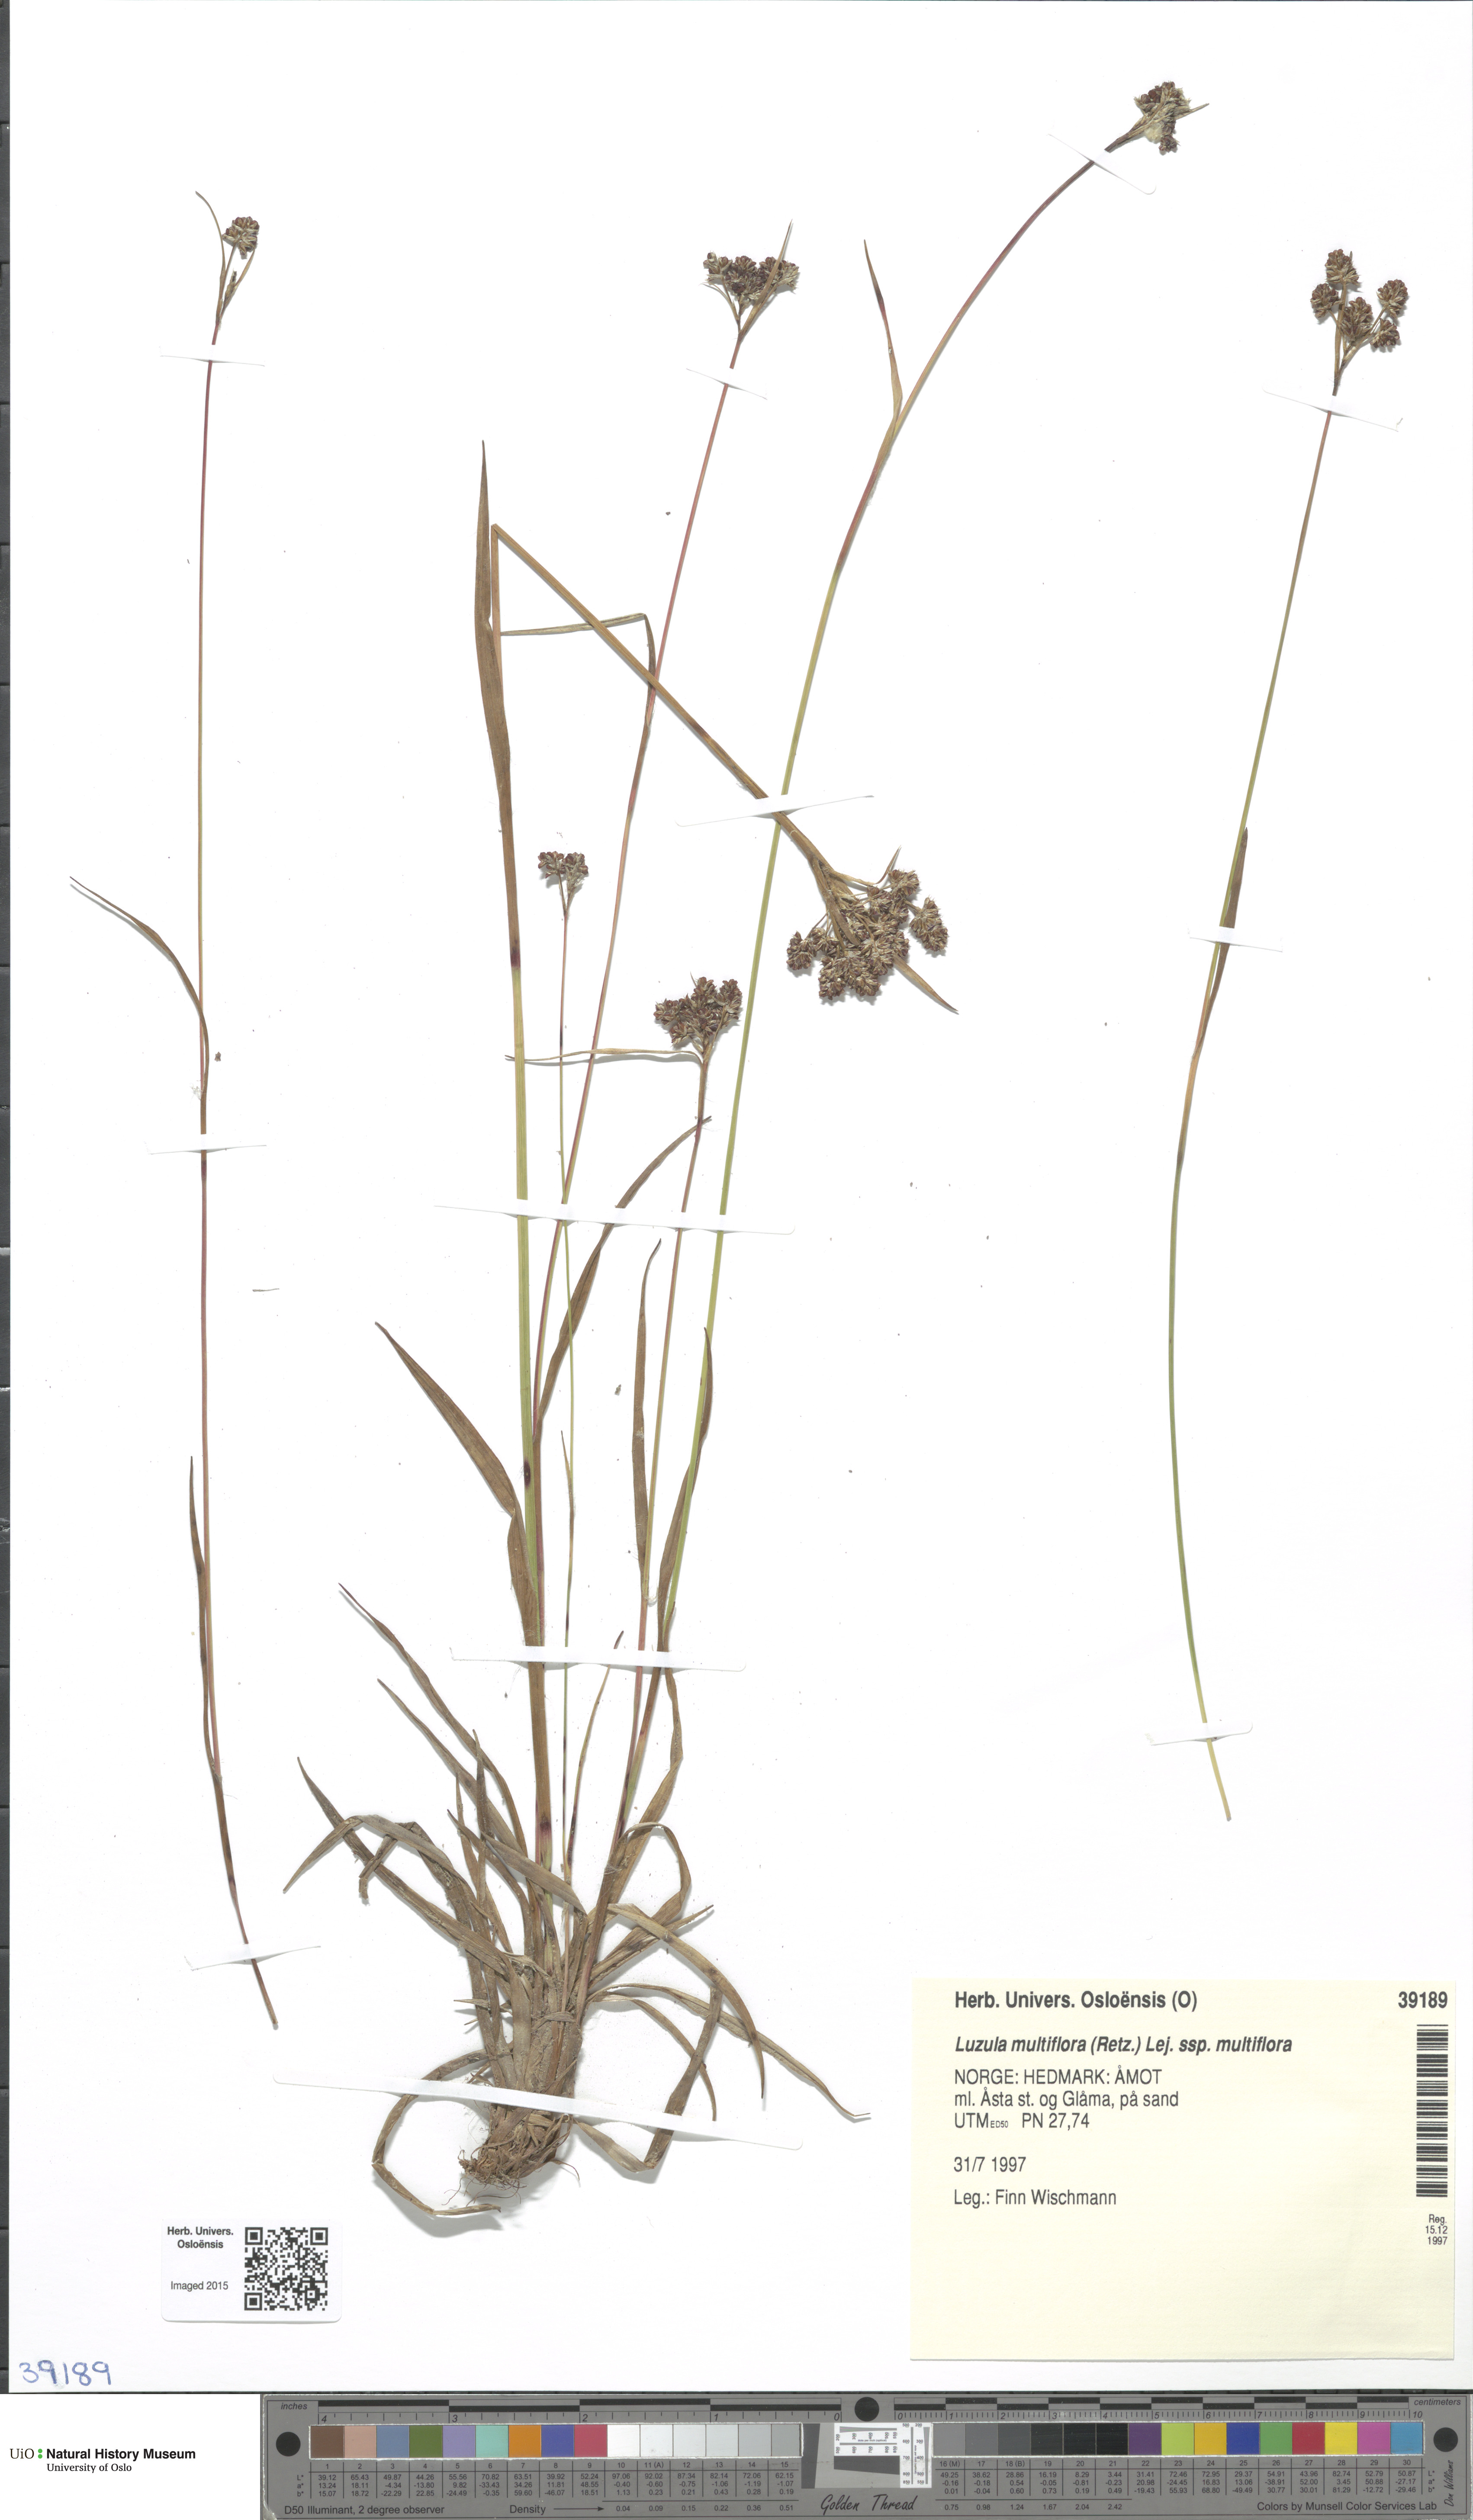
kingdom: Plantae
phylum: Tracheophyta
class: Liliopsida
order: Poales
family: Juncaceae
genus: Luzula
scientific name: Luzula multiflora
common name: Heath wood-rush
